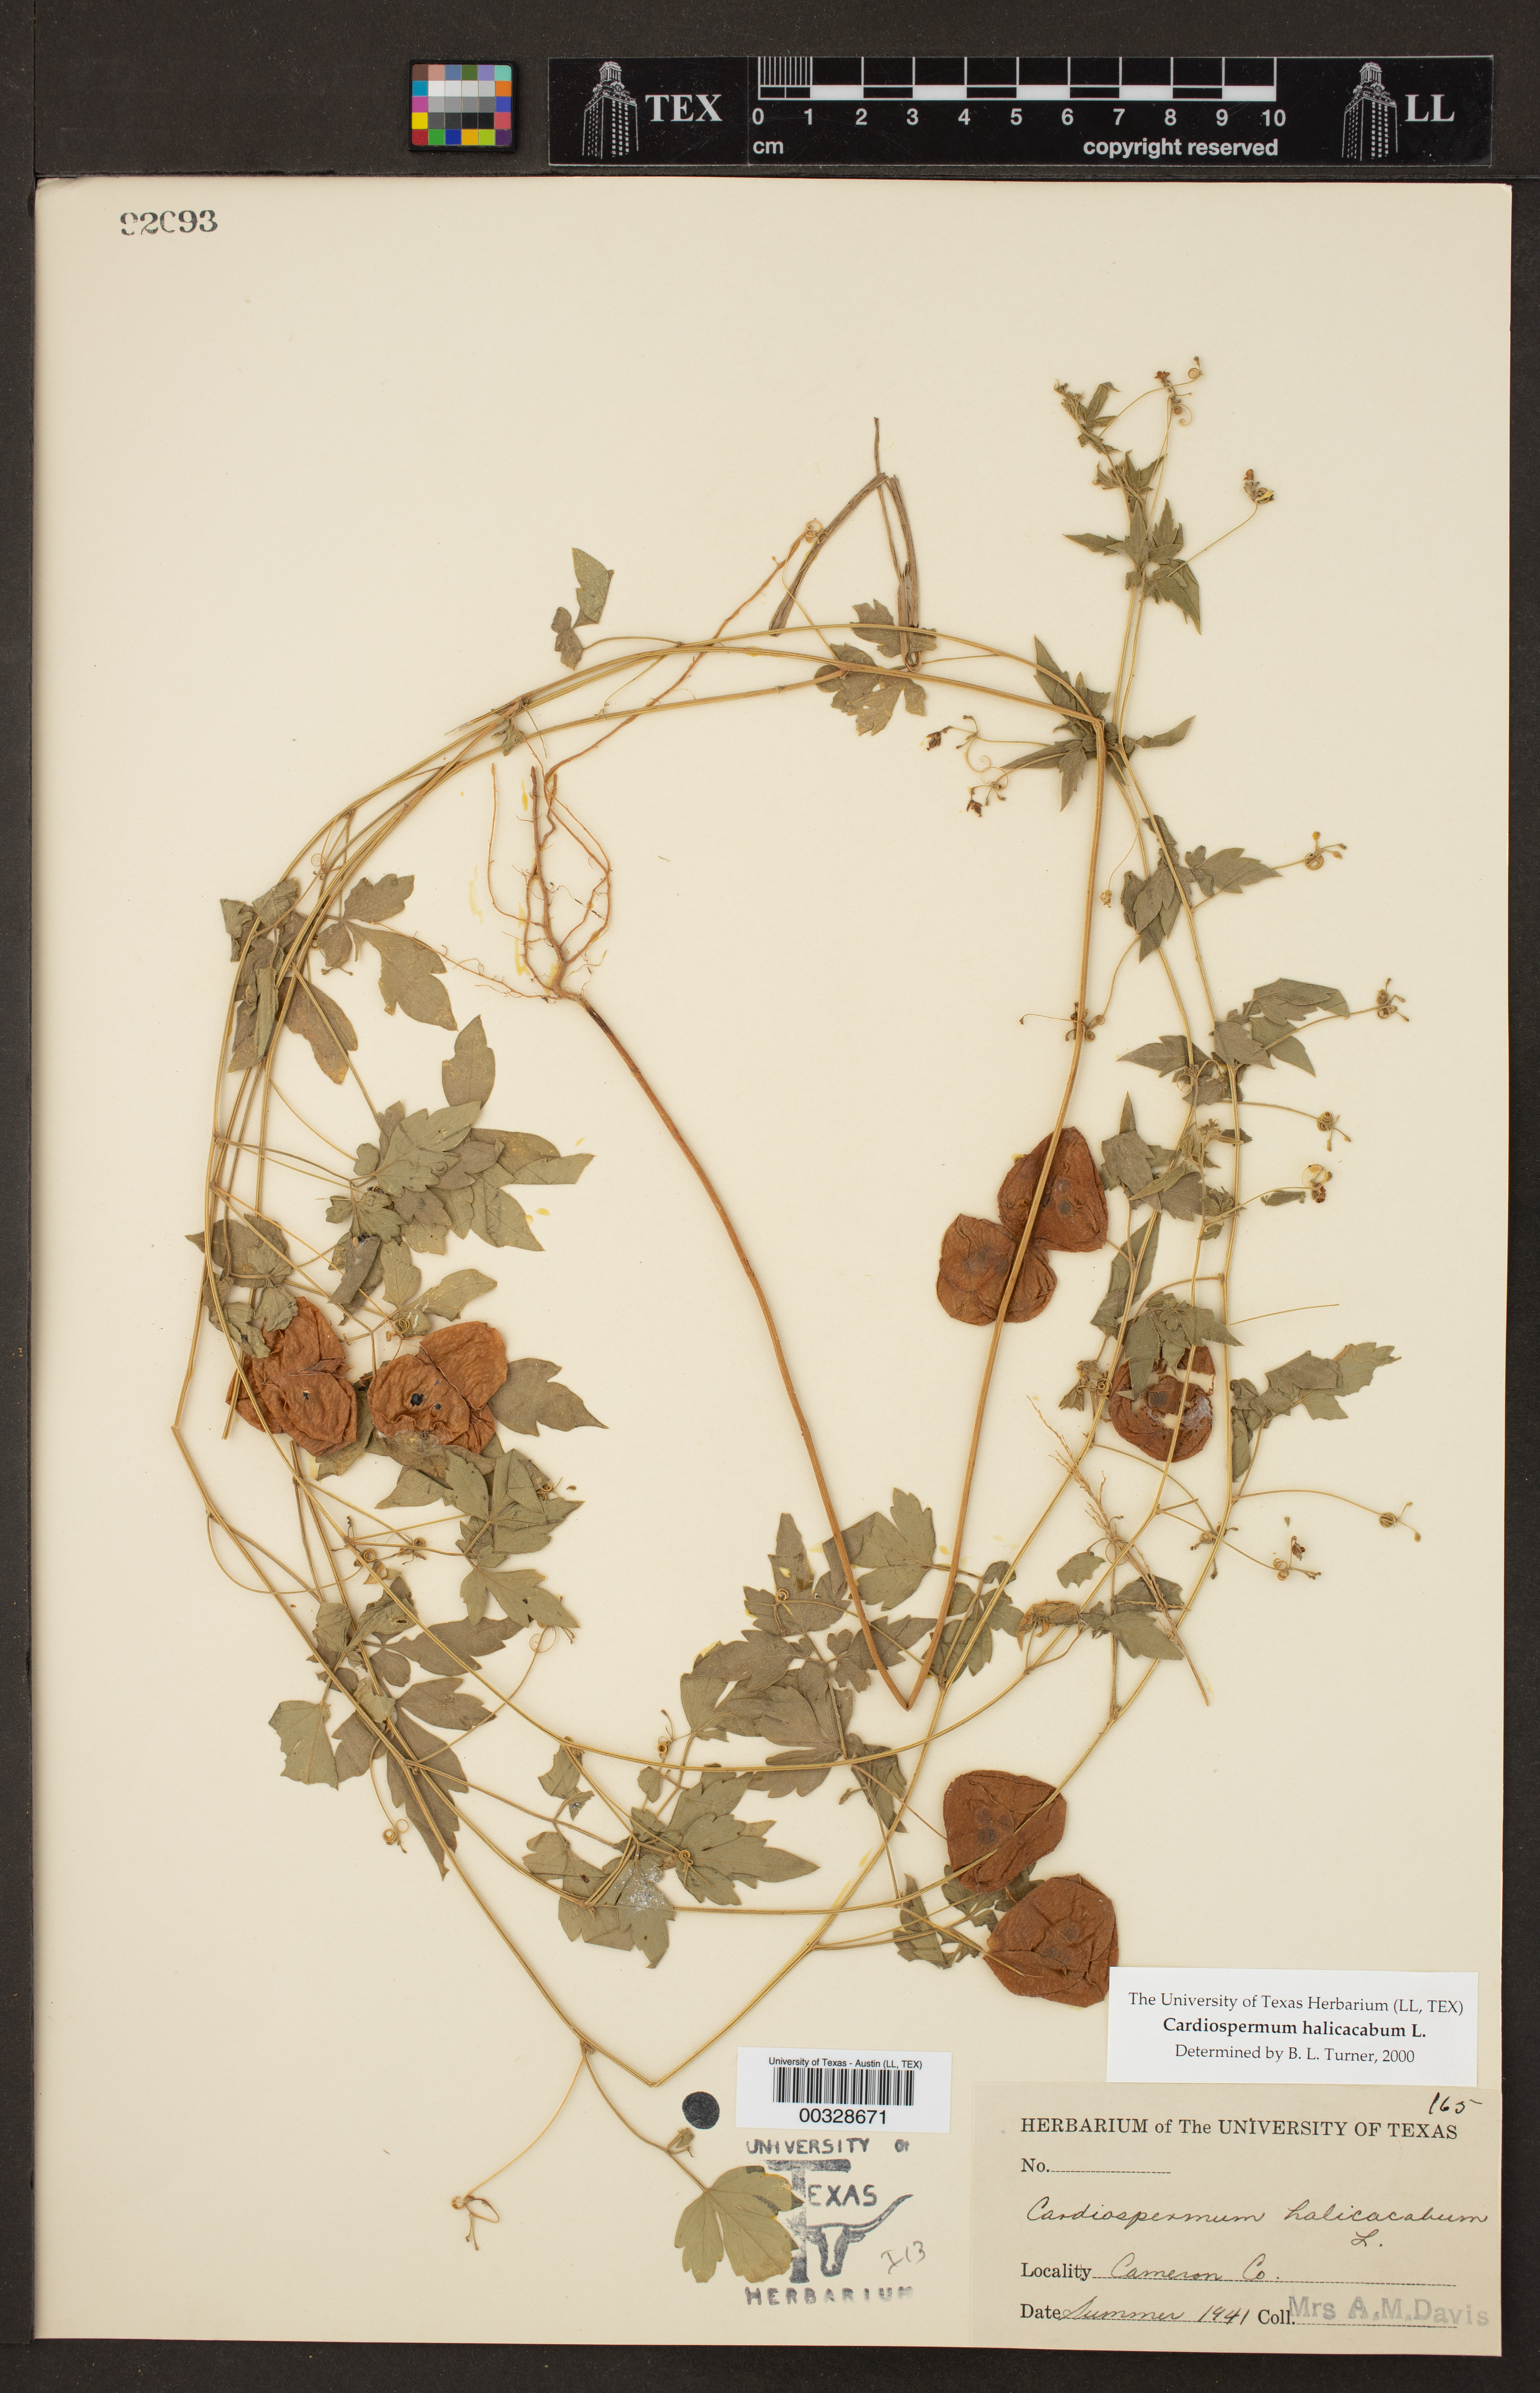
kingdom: Plantae
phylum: Tracheophyta
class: Magnoliopsida
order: Sapindales
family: Sapindaceae
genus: Cardiospermum
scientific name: Cardiospermum halicacabum
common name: Balloon vine
